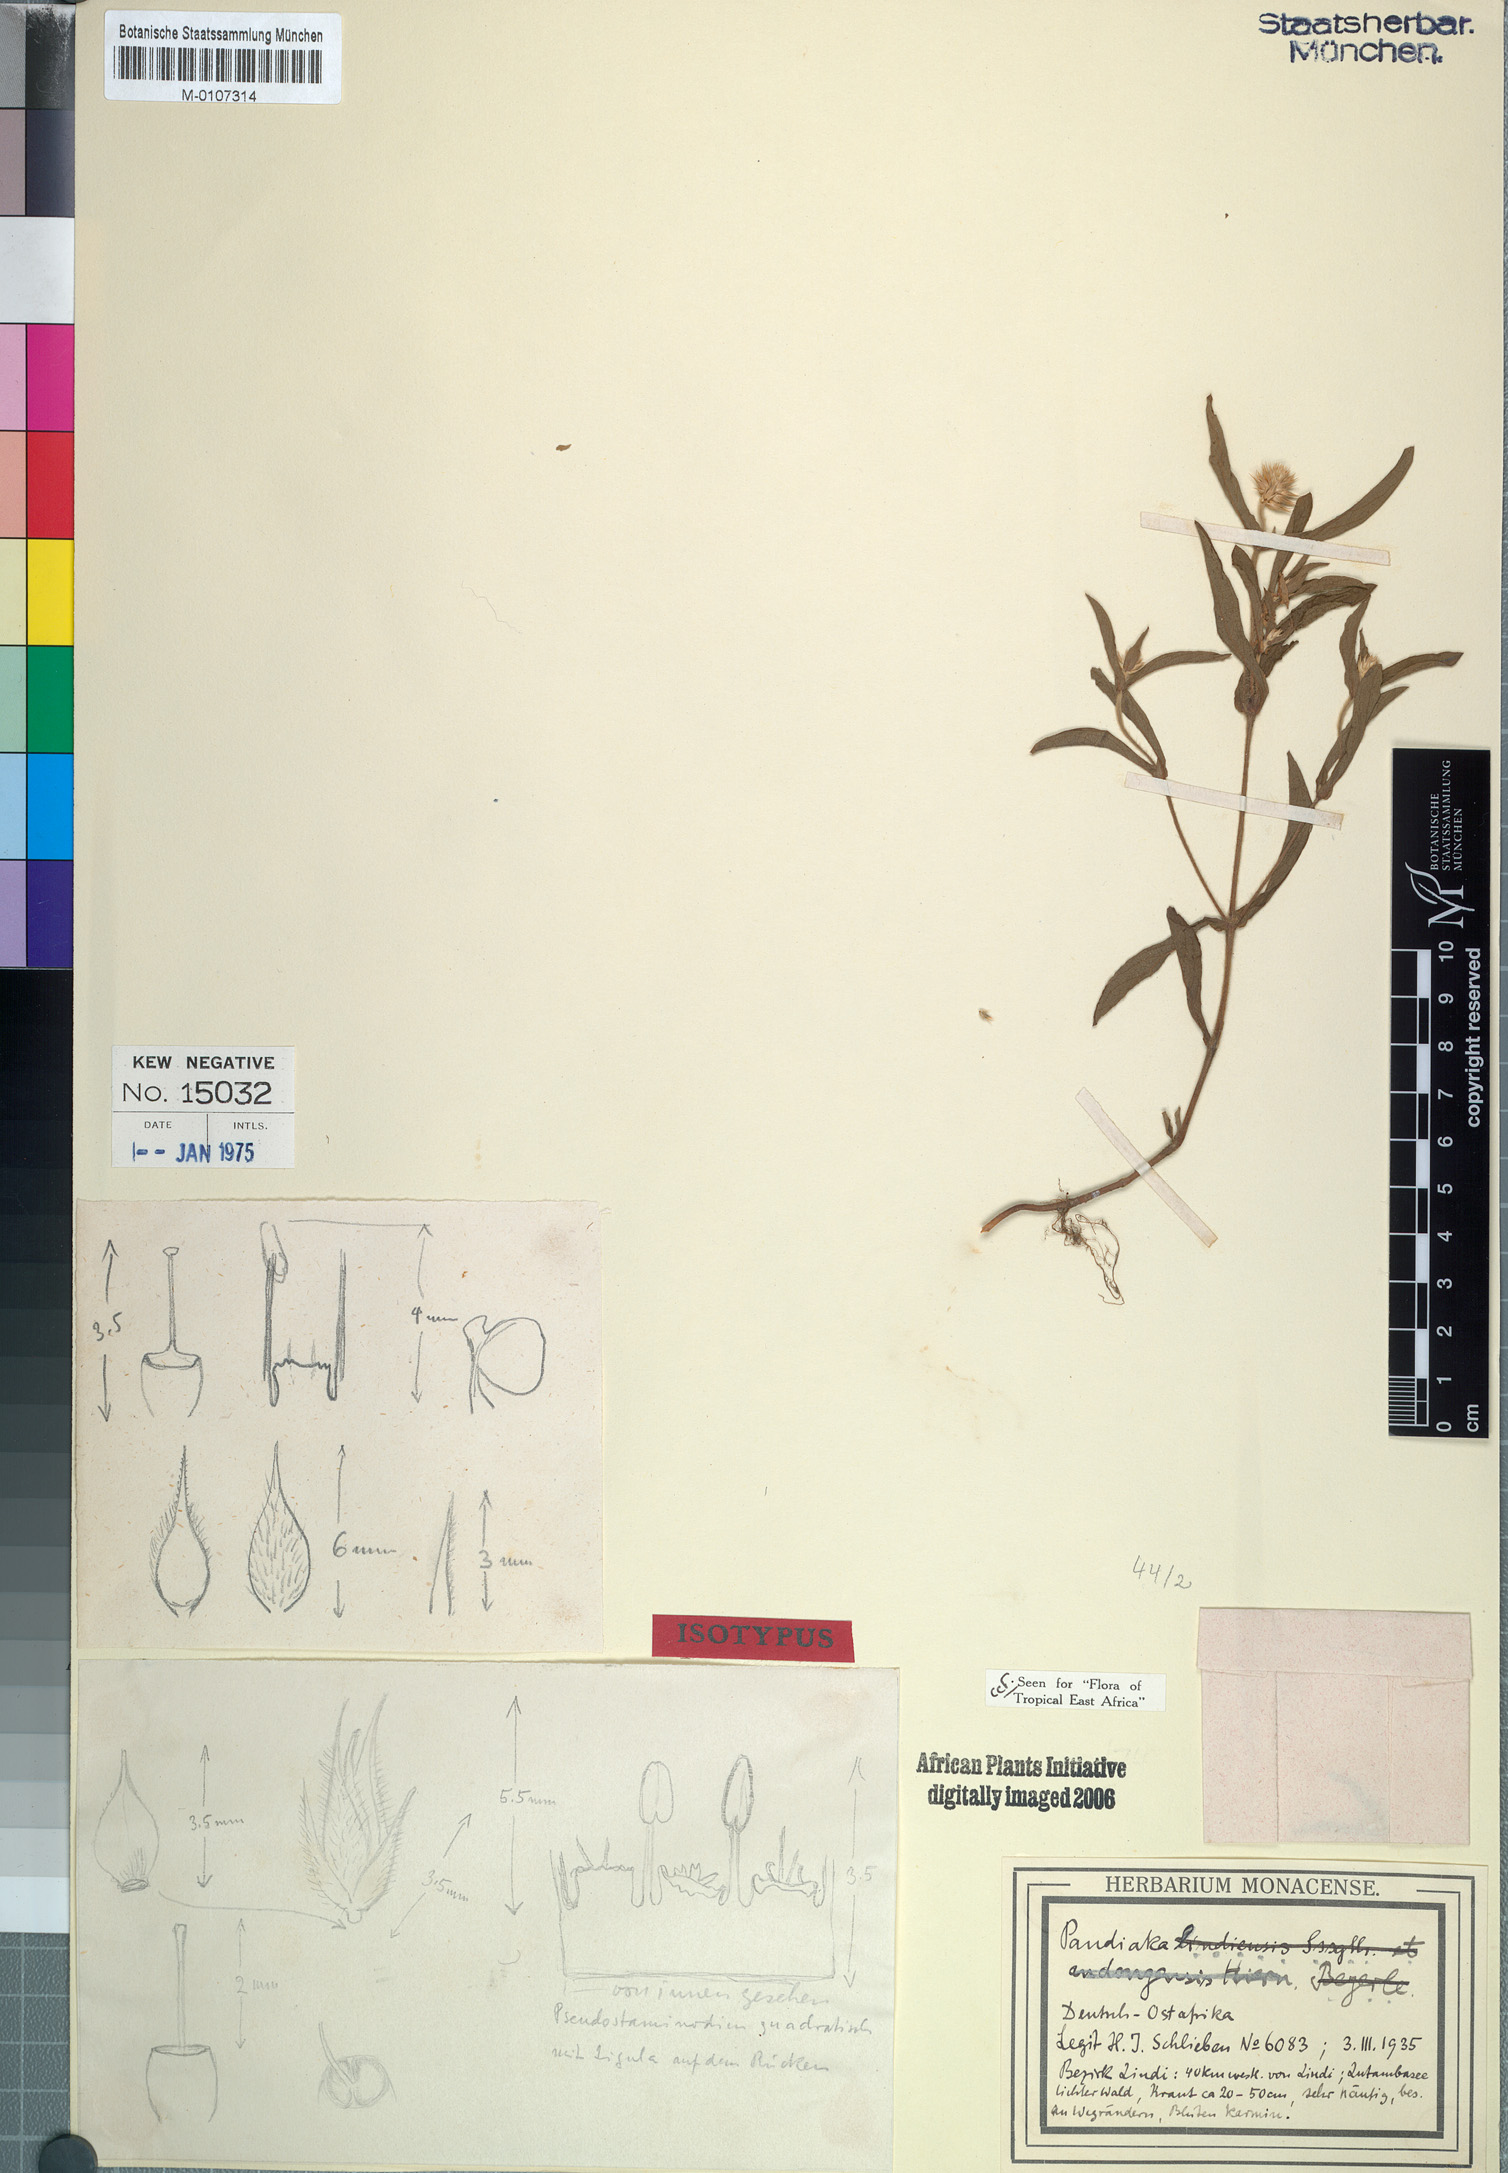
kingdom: Plantae
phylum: Tracheophyta
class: Magnoliopsida
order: Caryophyllales
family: Amaranthaceae
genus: Pandiaka
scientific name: Pandiaka rubrolutea
